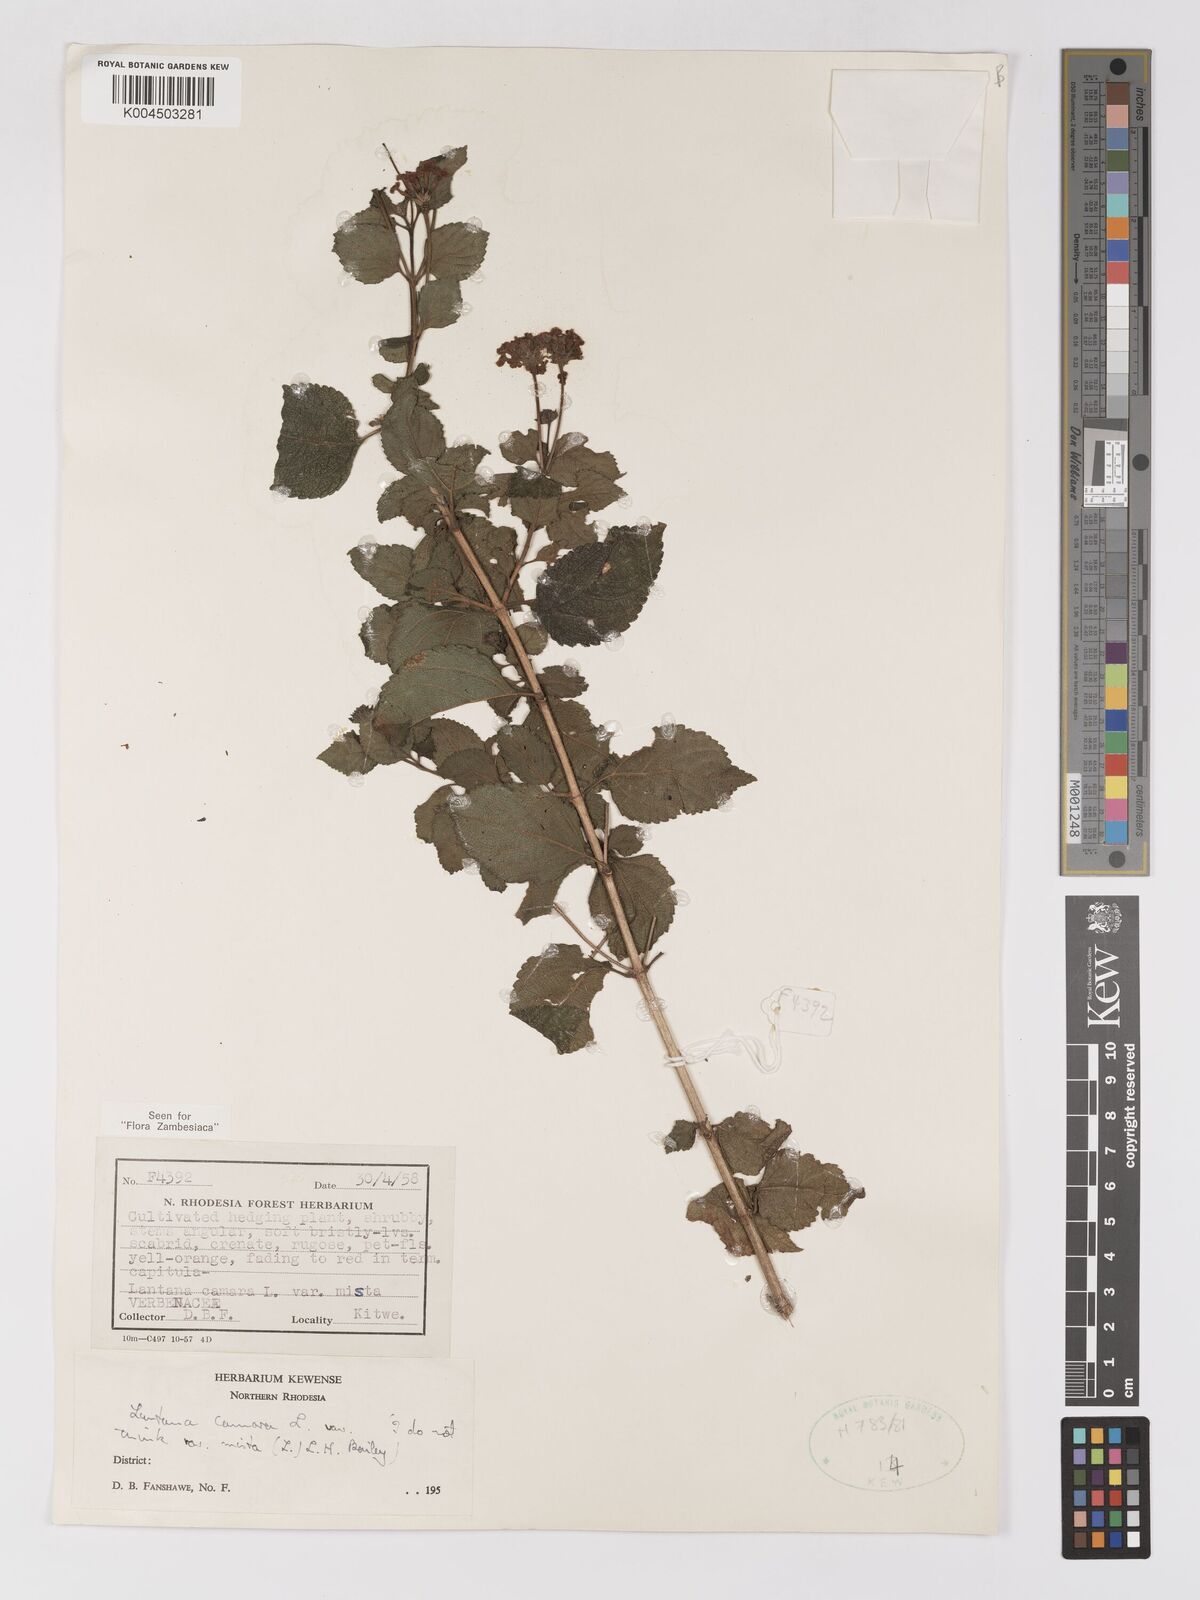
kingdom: Plantae
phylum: Tracheophyta
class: Magnoliopsida
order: Lamiales
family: Verbenaceae
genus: Lantana
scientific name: Lantana camara
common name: Lantana
